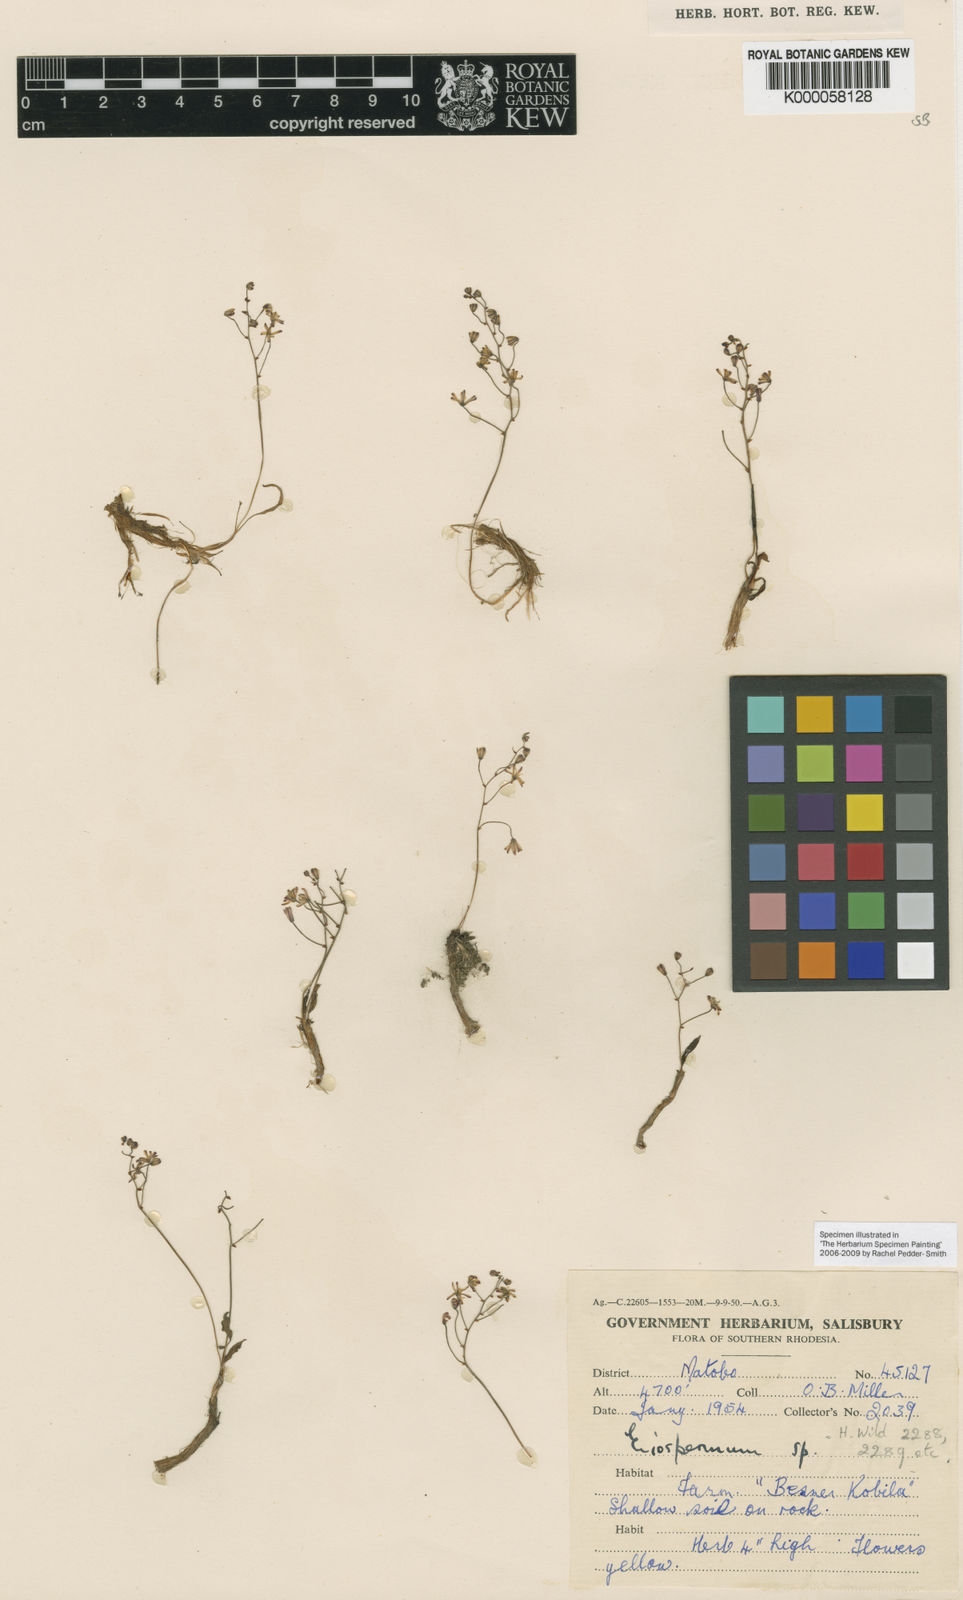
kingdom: Plantae
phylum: Tracheophyta
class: Liliopsida
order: Asparagales
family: Asparagaceae
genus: Eriospermum
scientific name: Eriospermum triphyllum
